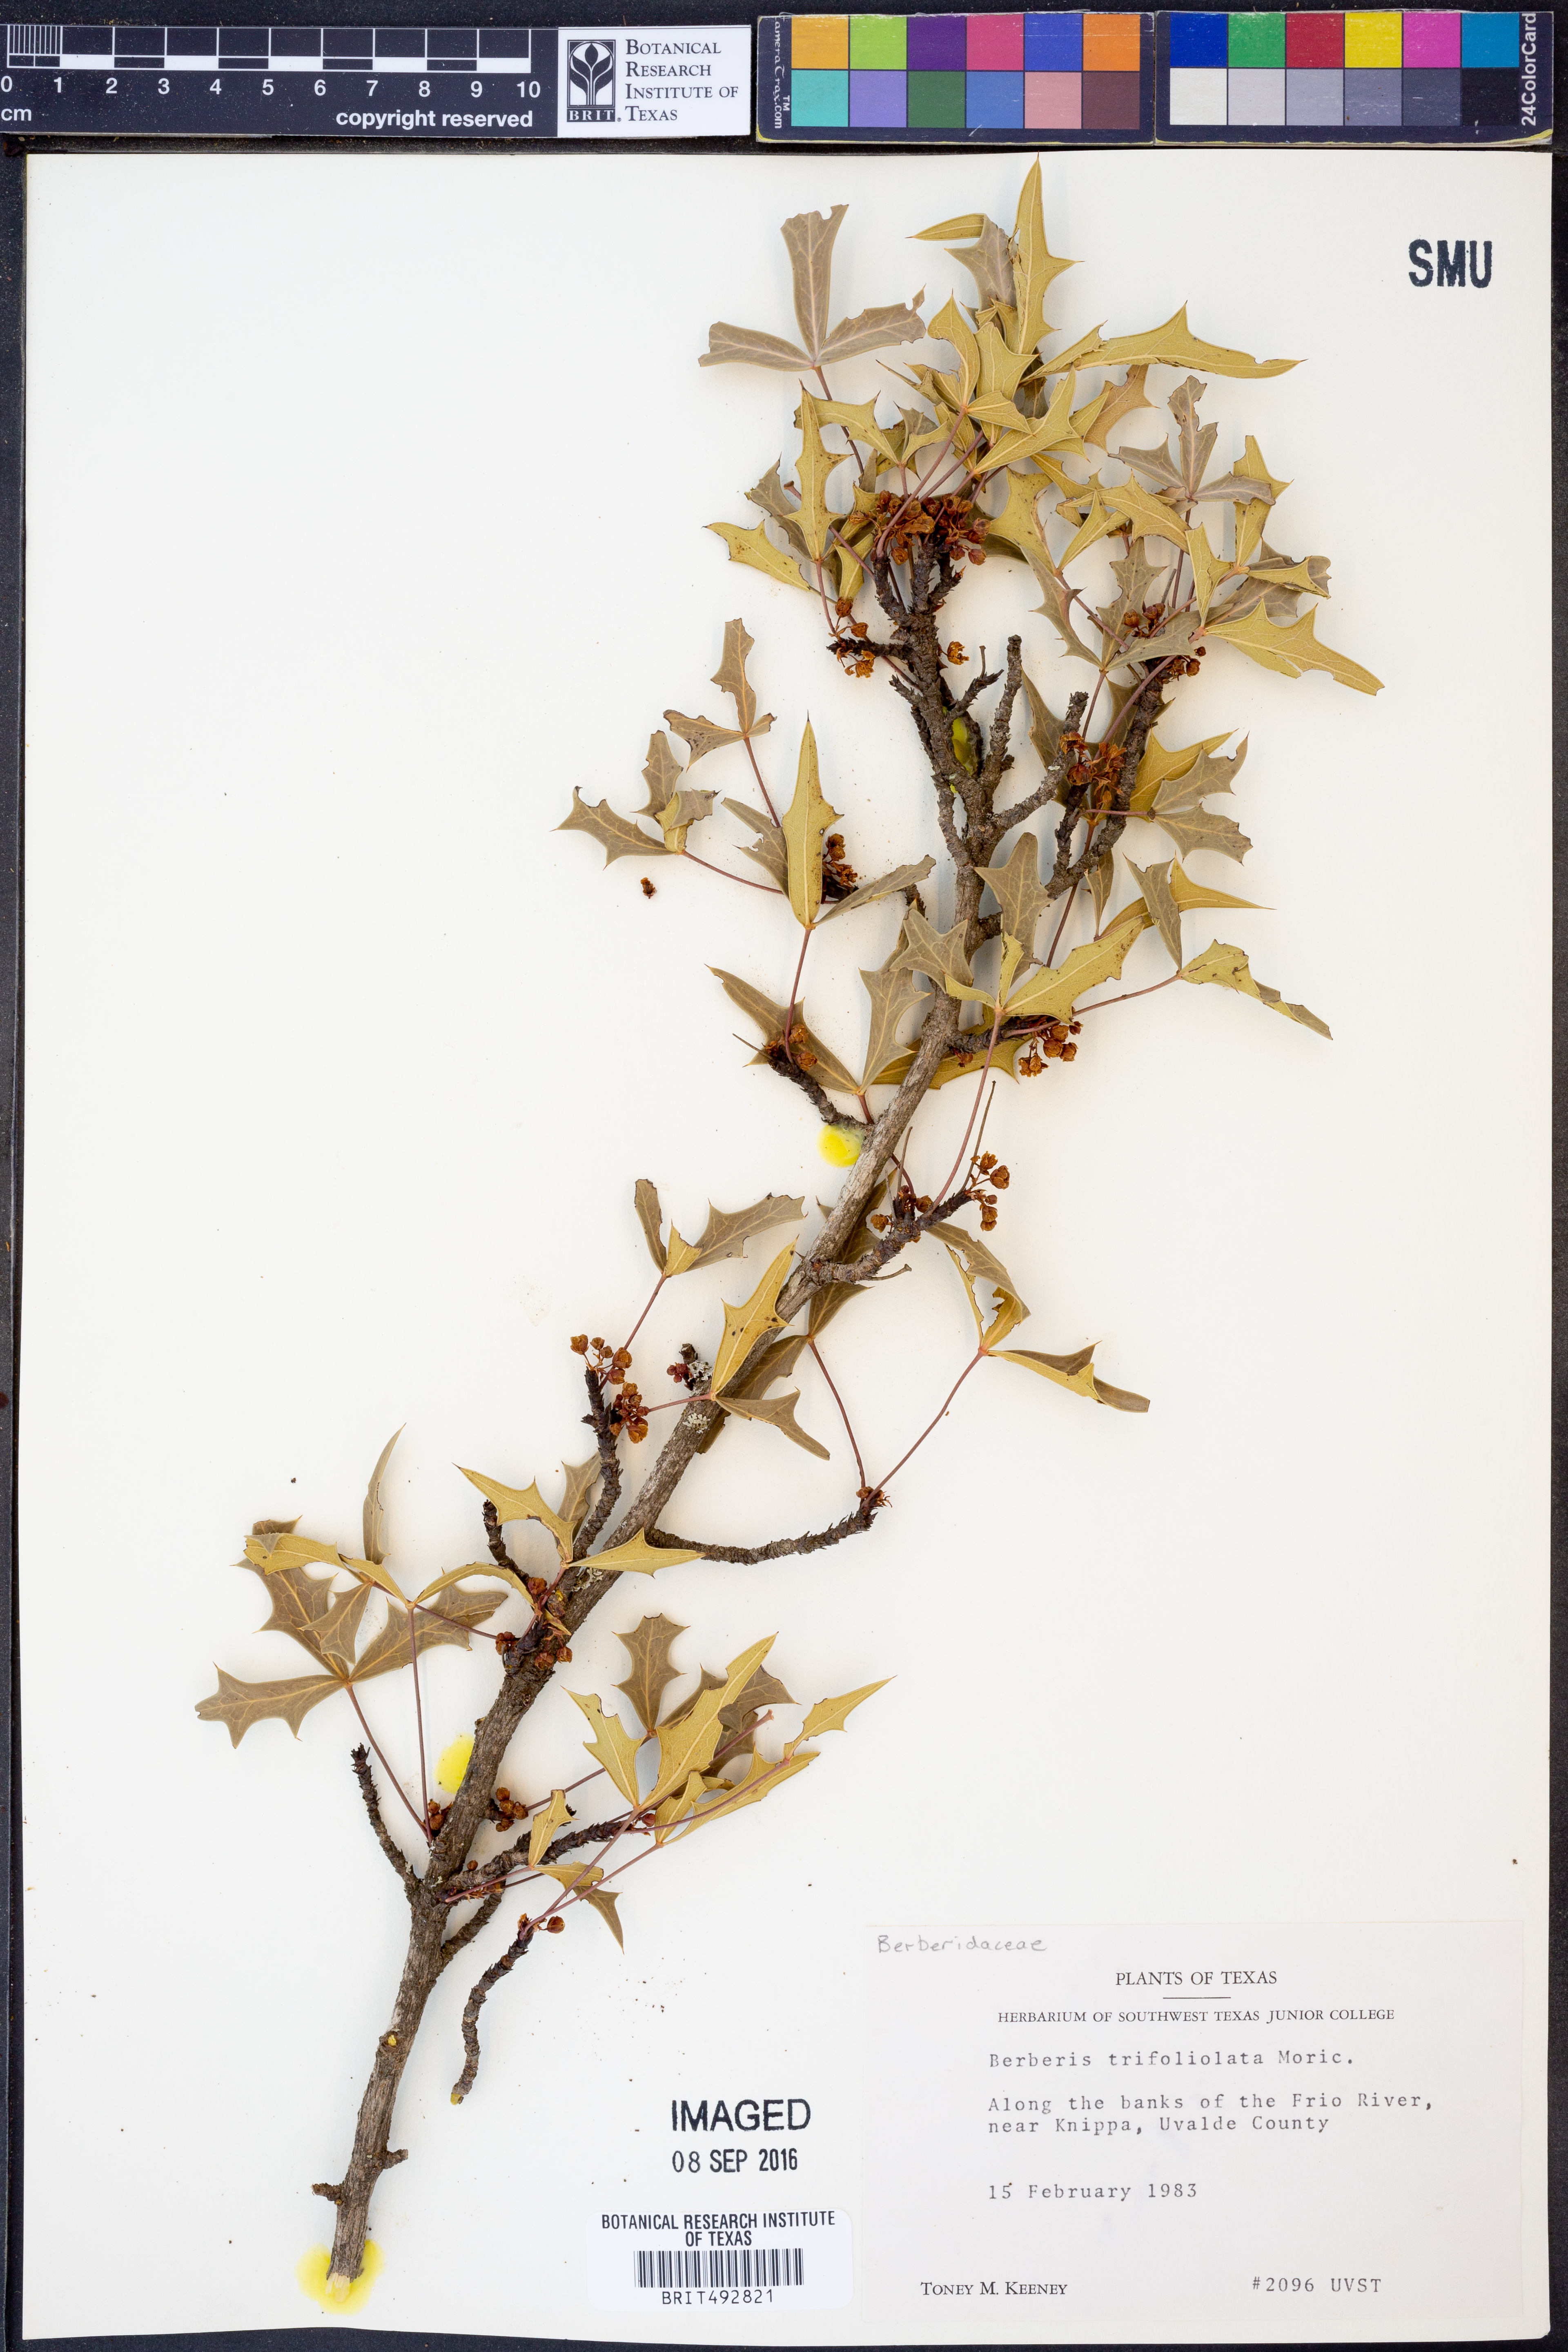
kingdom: Plantae
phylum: Tracheophyta
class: Magnoliopsida
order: Ranunculales
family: Berberidaceae
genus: Alloberberis
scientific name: Alloberberis trifoliolata
